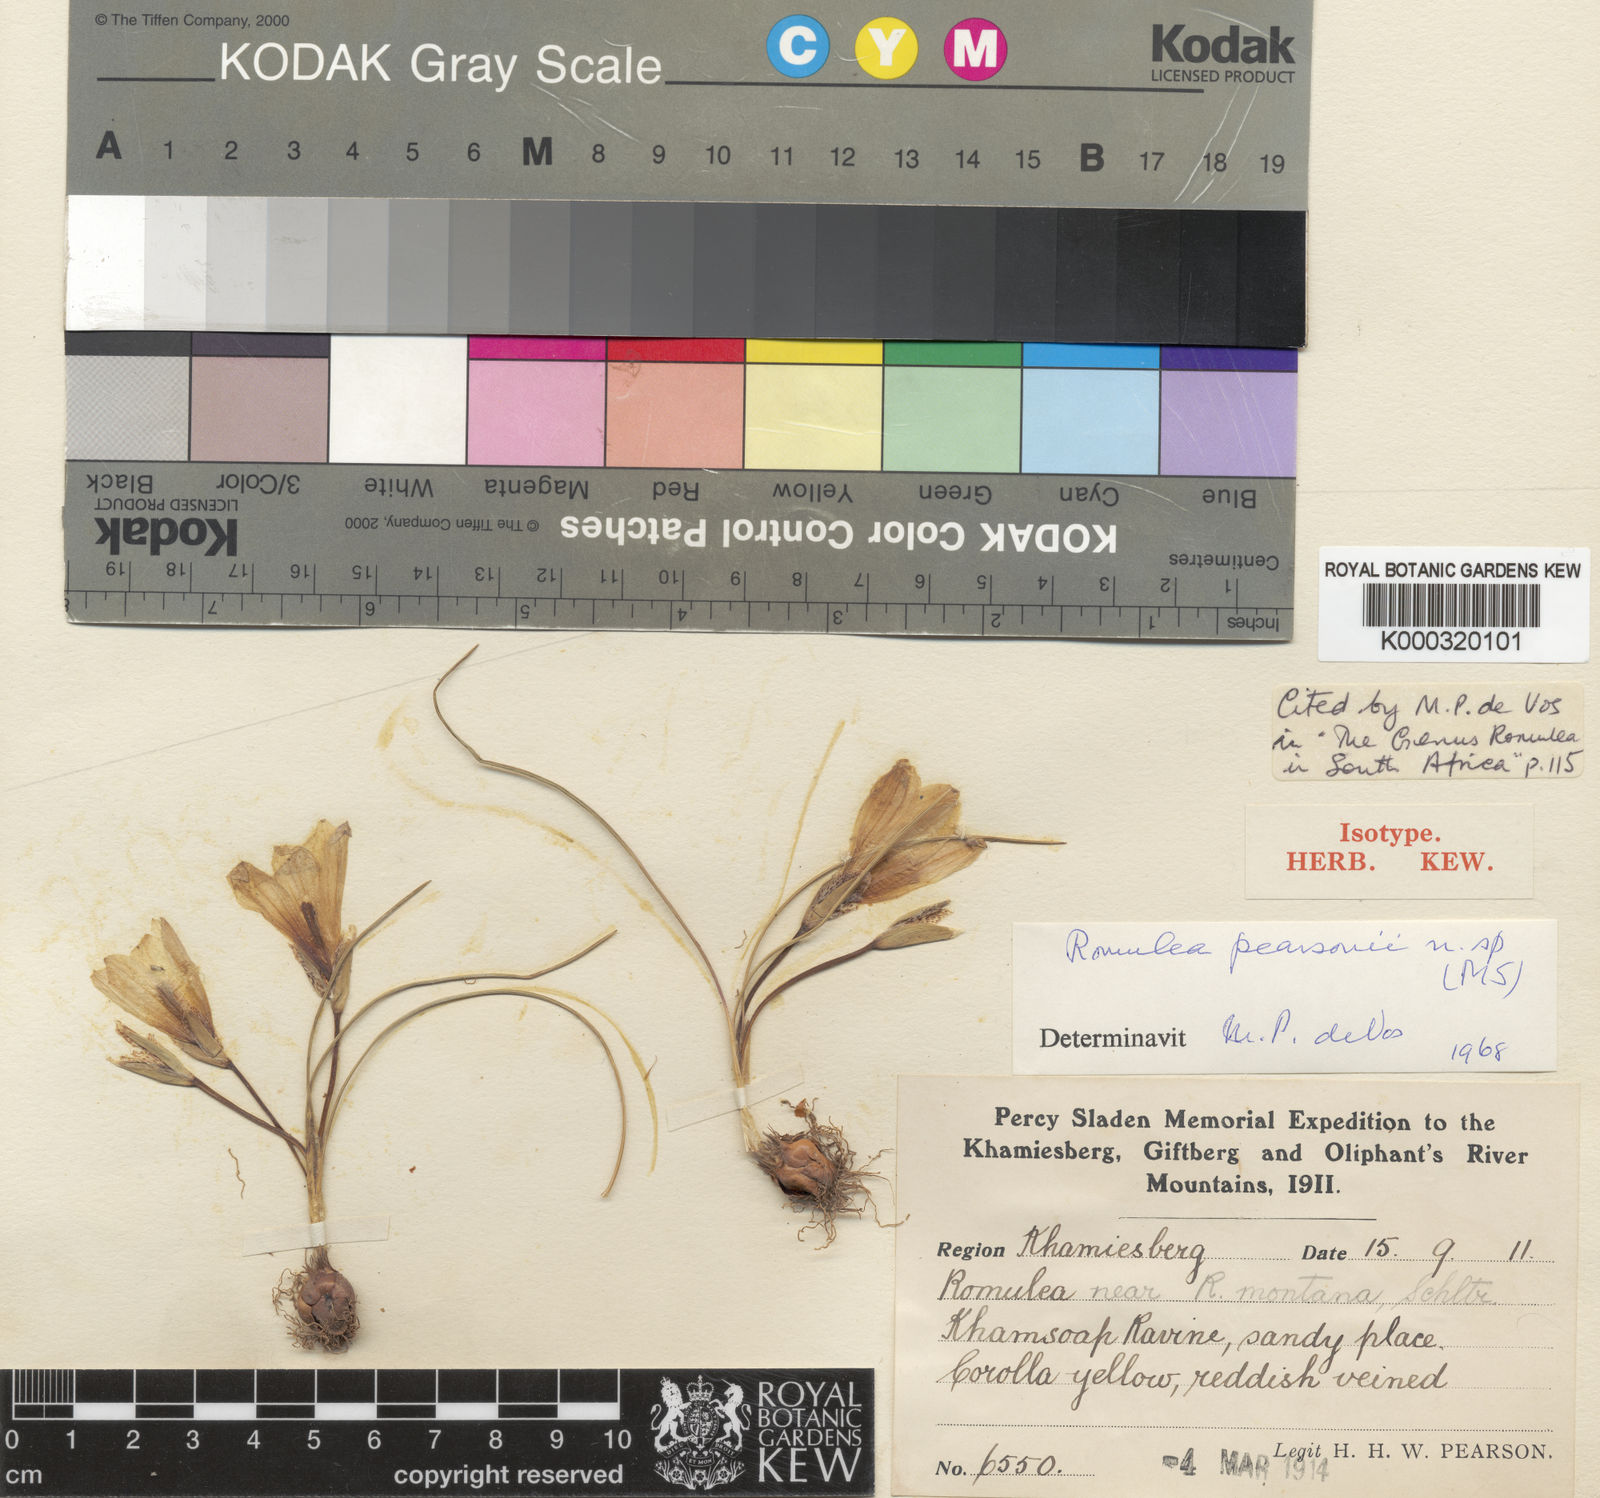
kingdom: Plantae
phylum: Tracheophyta
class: Liliopsida
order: Asparagales
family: Iridaceae
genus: Romulea
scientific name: Romulea pearsonii
